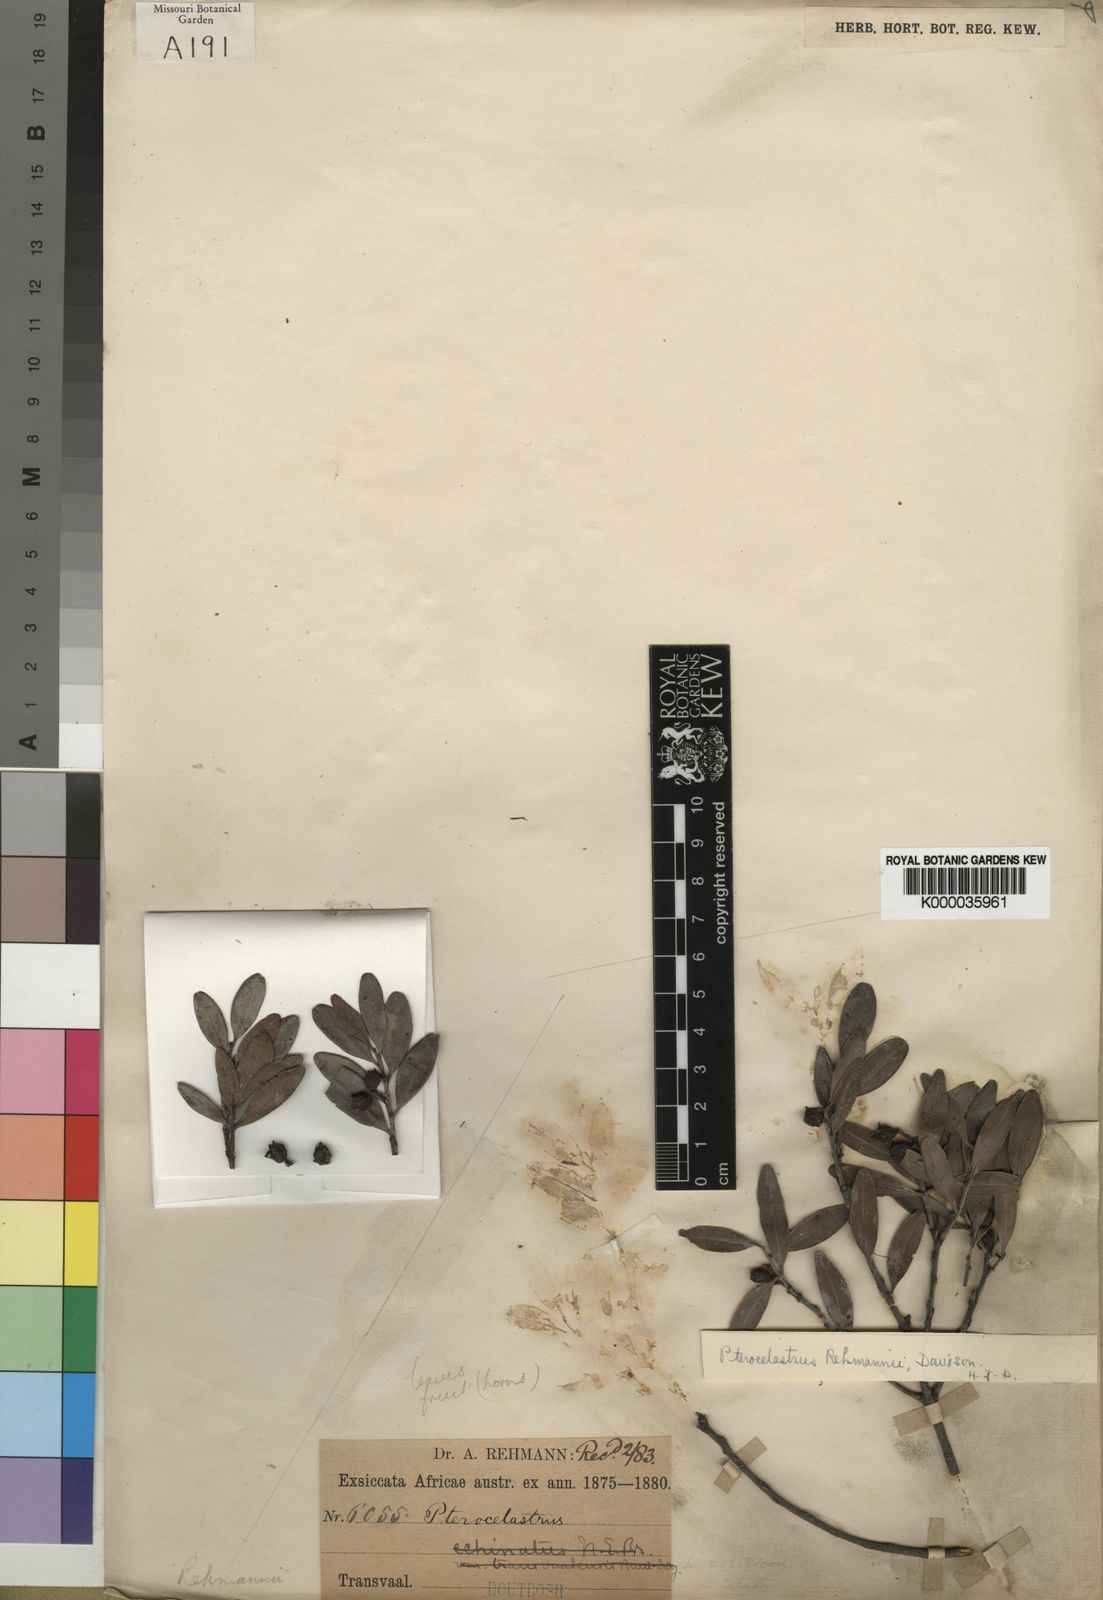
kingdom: Plantae
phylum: Tracheophyta
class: Magnoliopsida
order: Celastrales
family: Celastraceae
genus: Pterocelastrus
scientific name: Pterocelastrus echinatus
